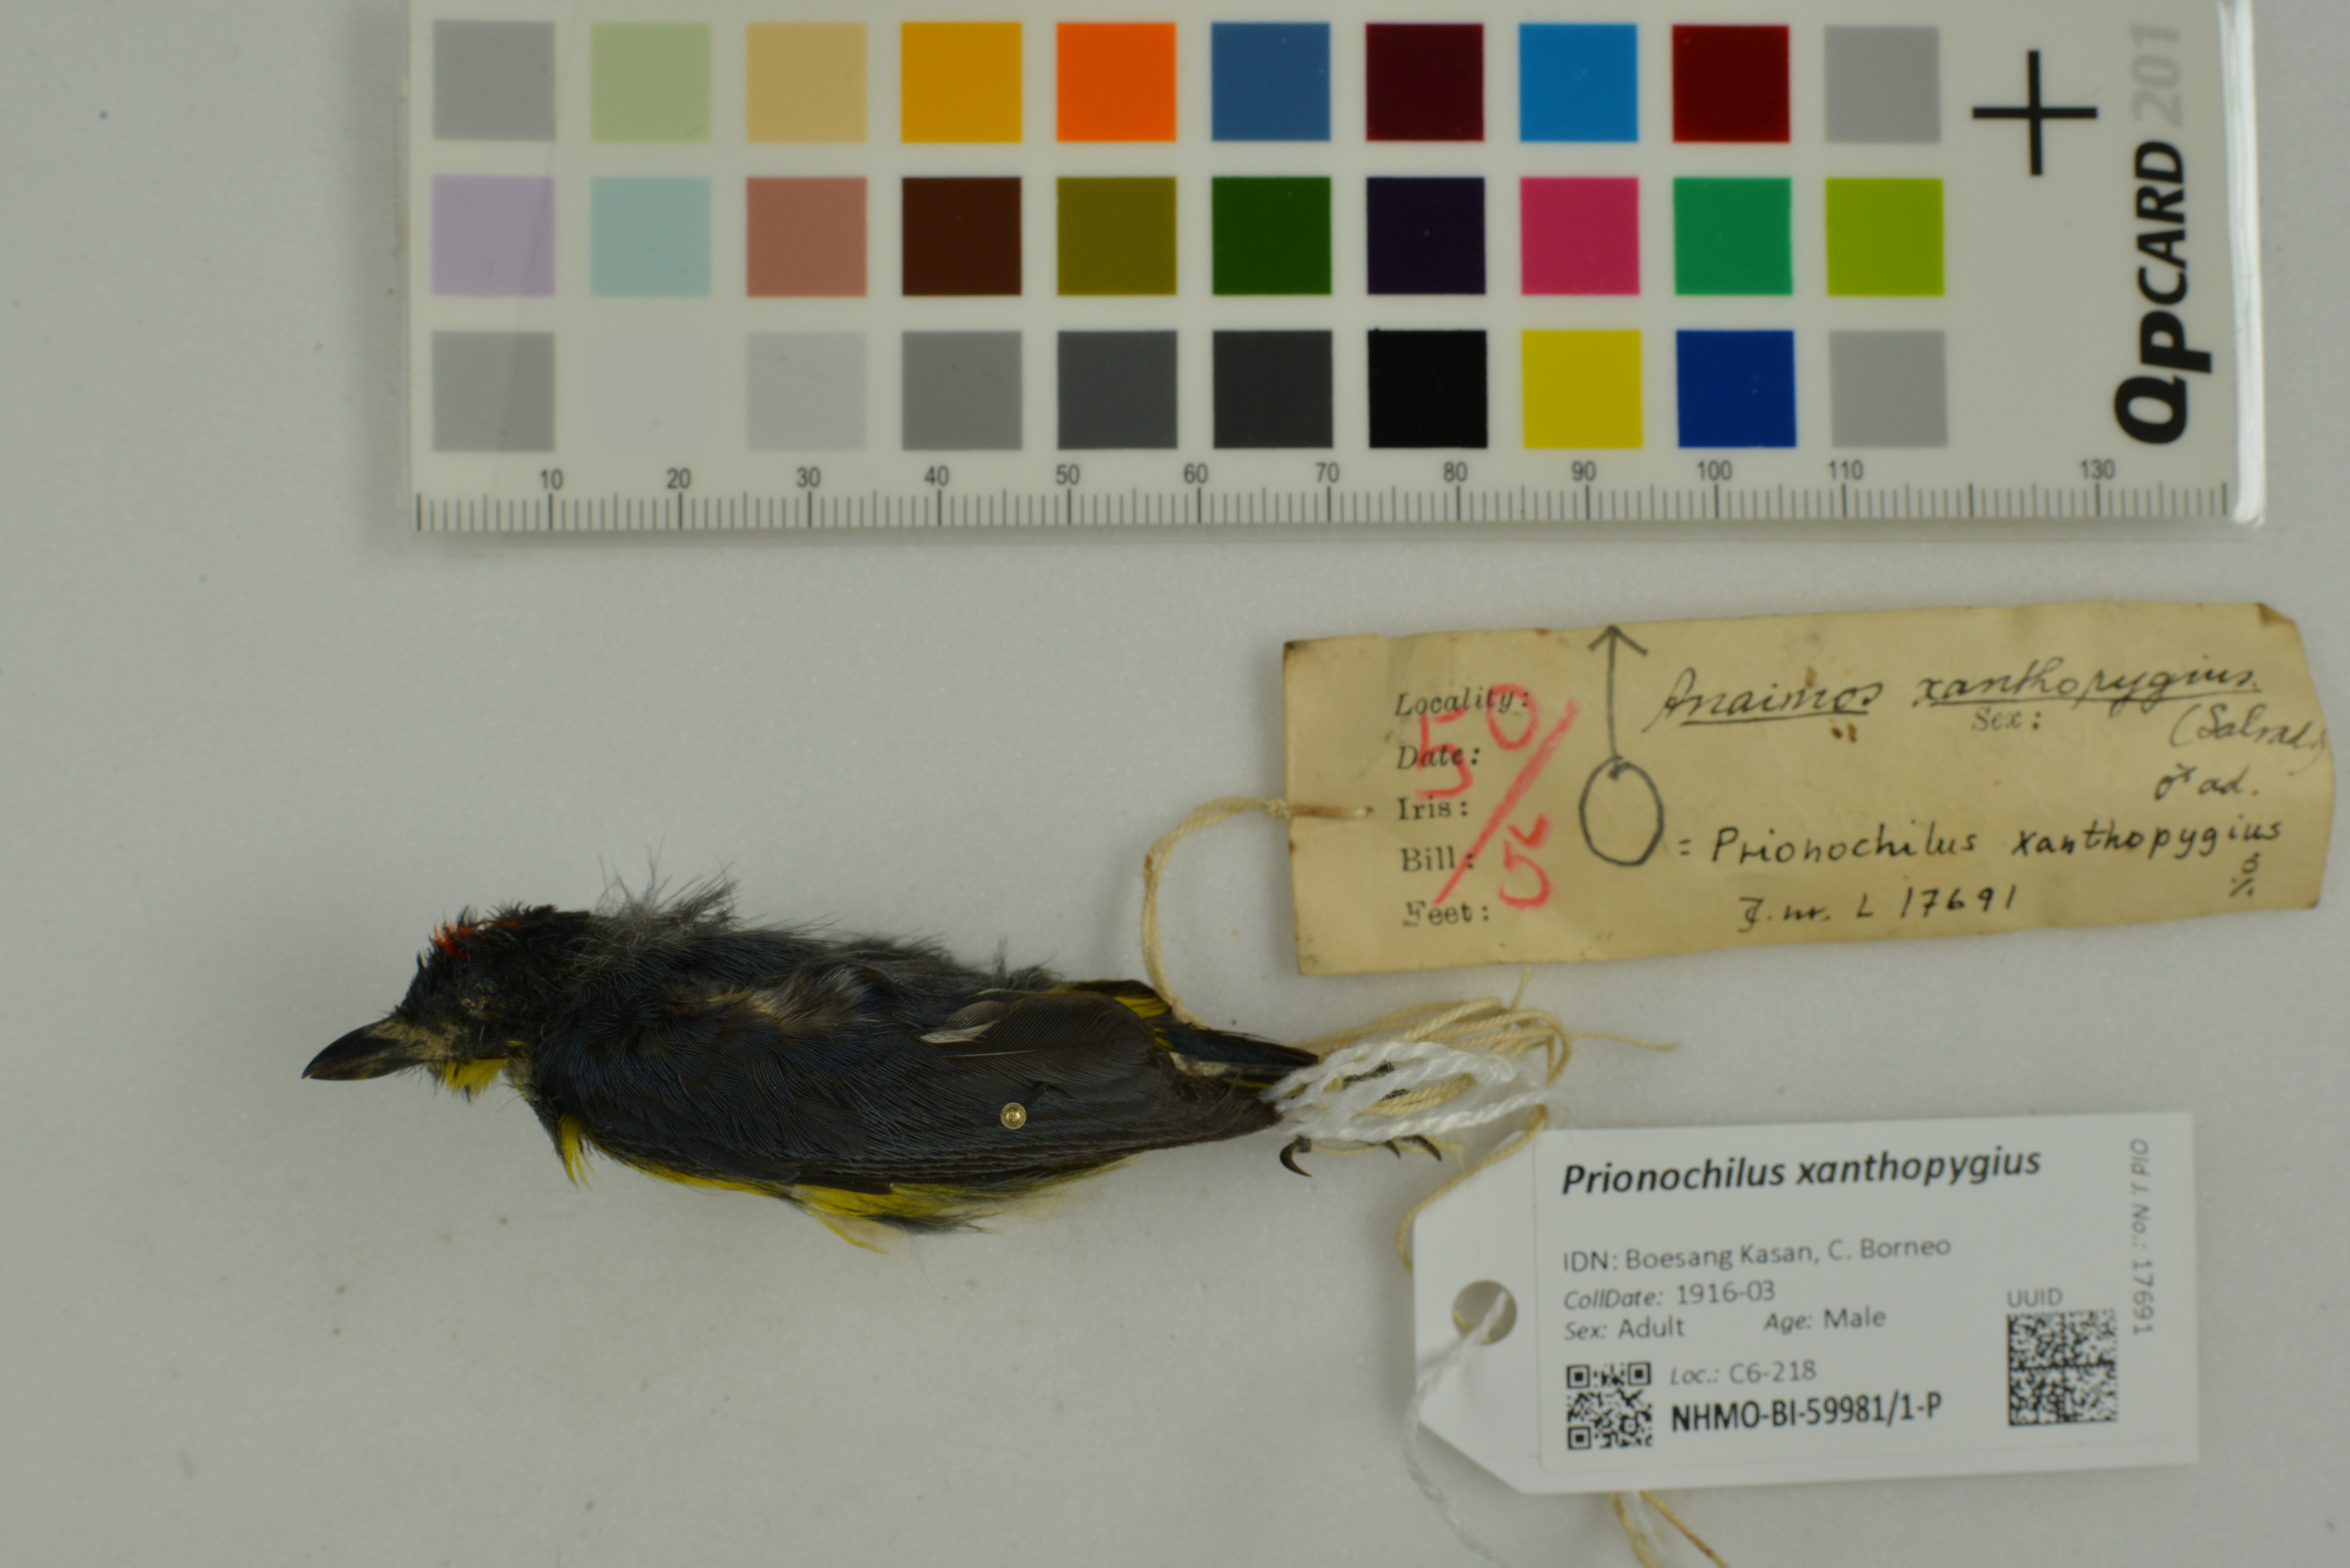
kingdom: Animalia
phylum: Chordata
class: Aves
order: Passeriformes
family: Dicaeidae
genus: Prionochilus
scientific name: Prionochilus xanthopygius
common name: Yellow-rumped flowerpecker
